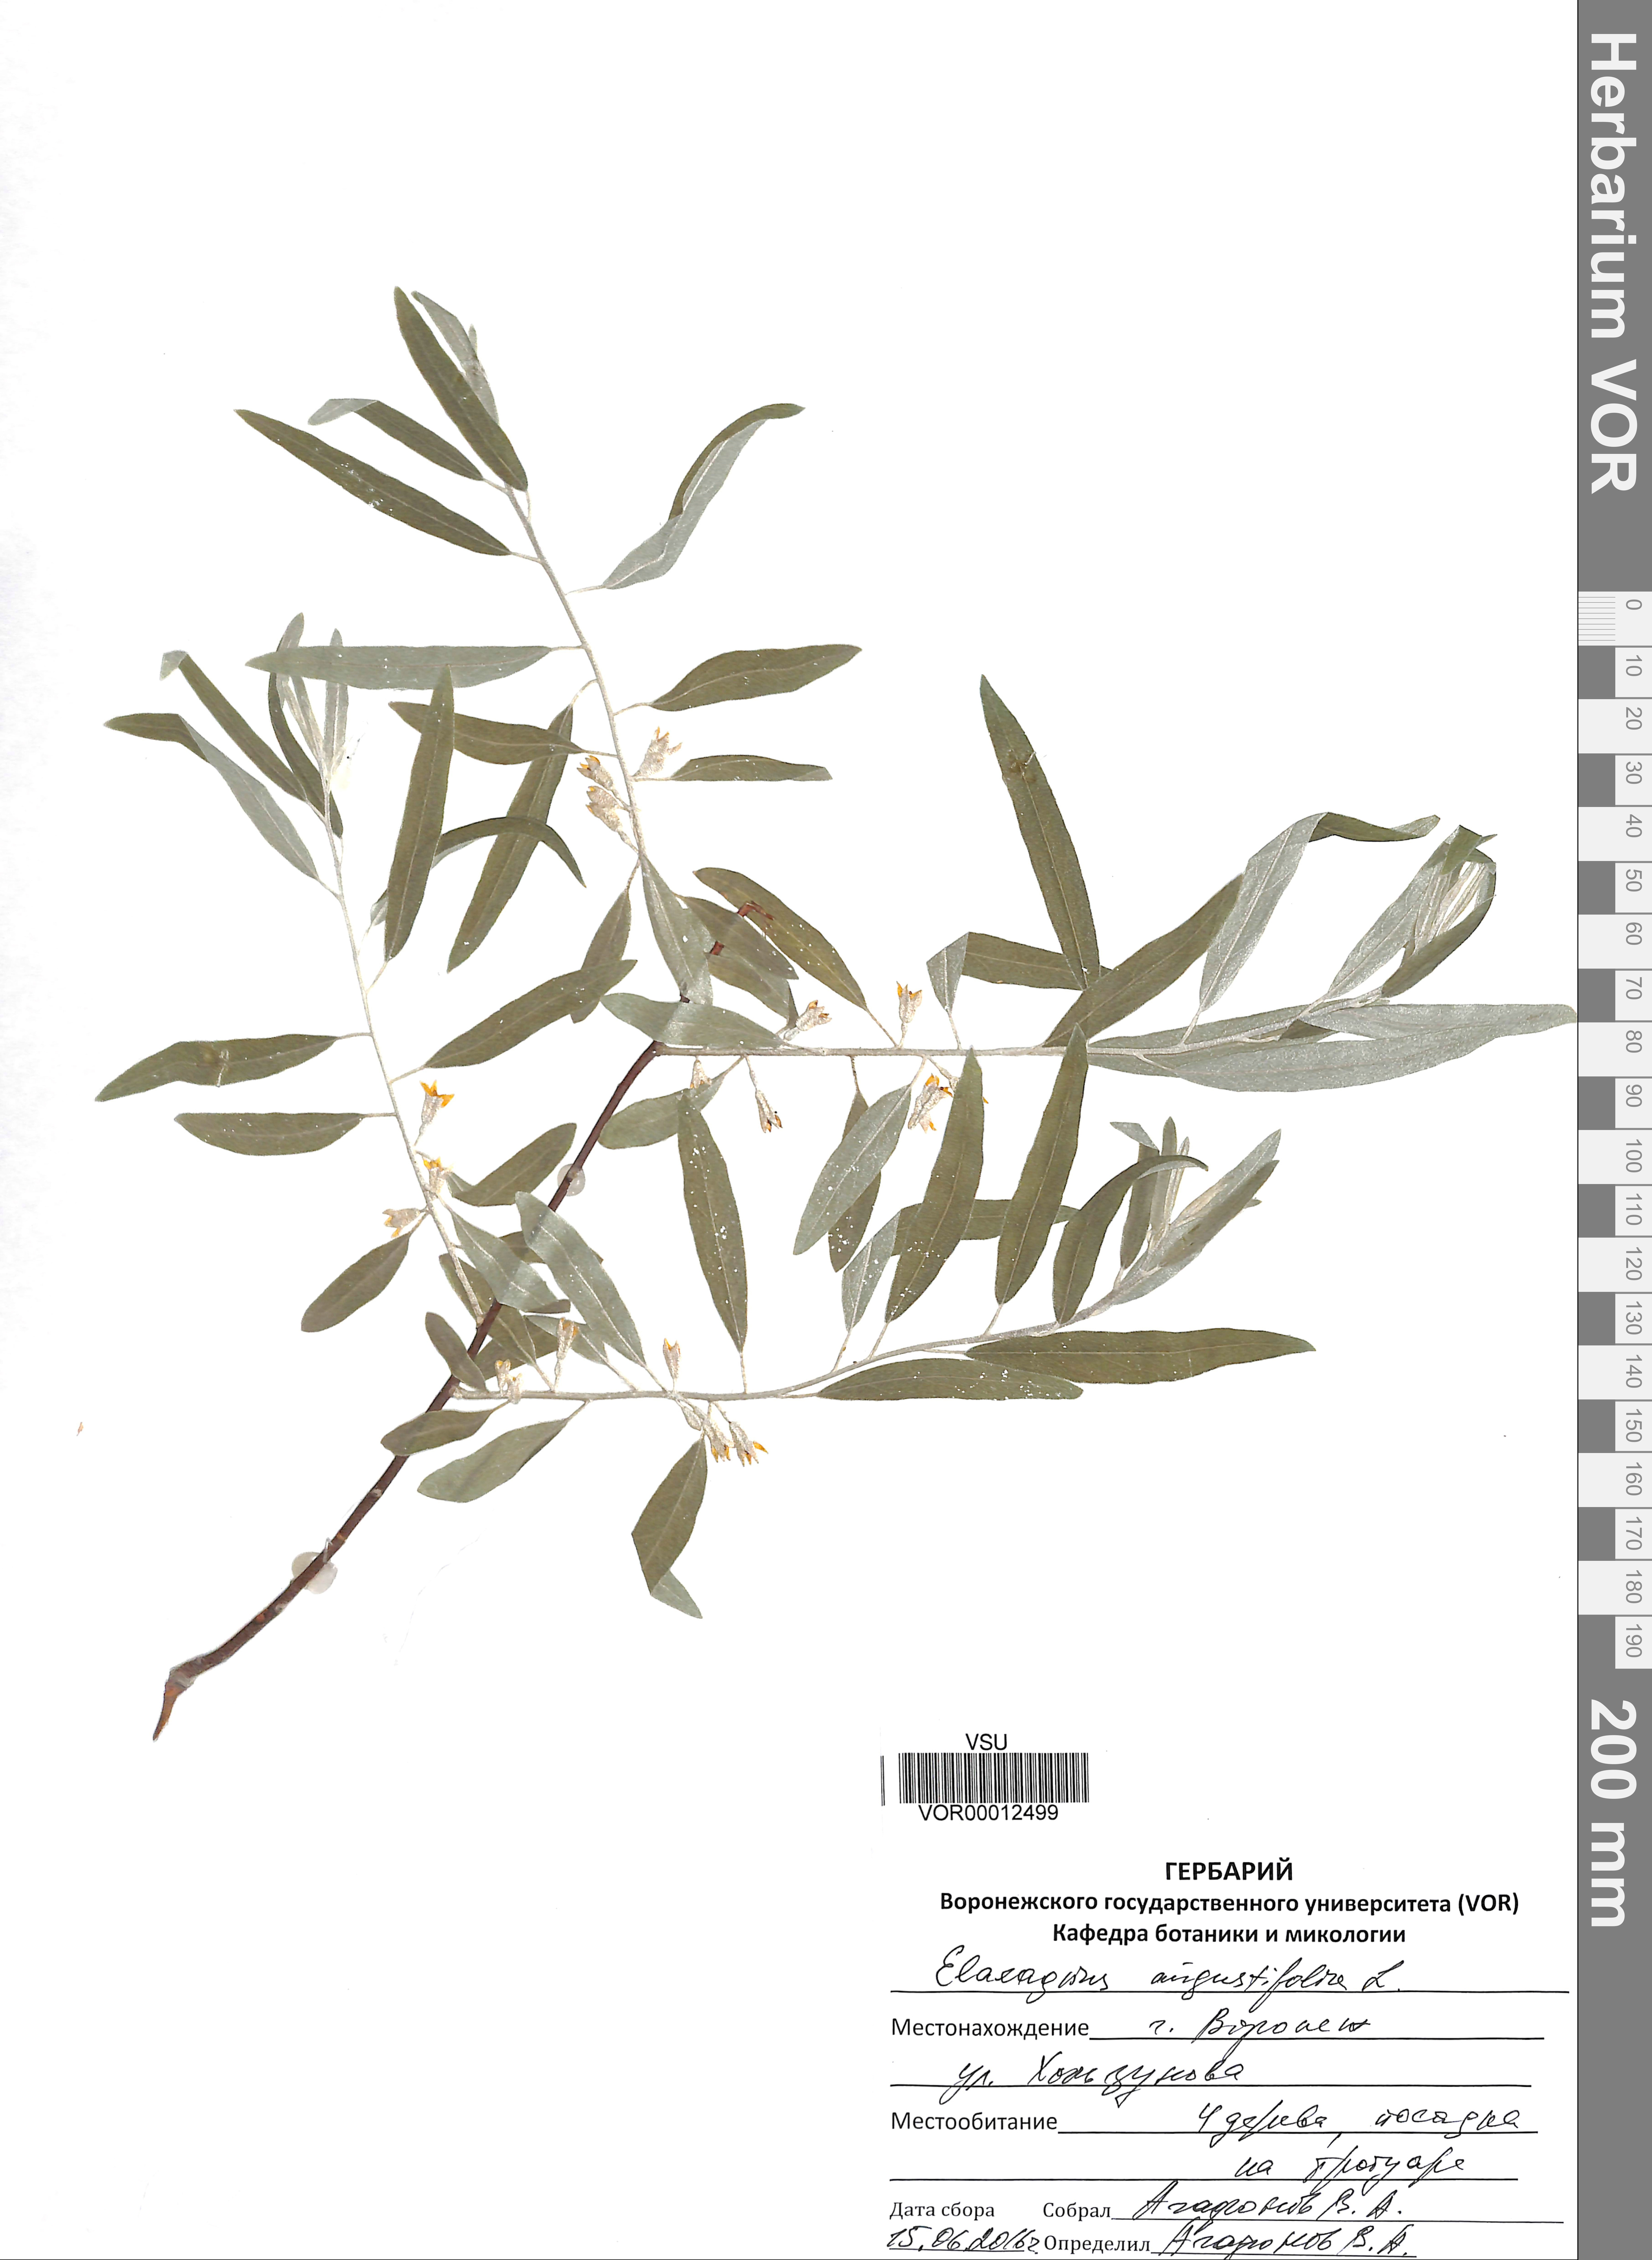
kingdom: Plantae
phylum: Tracheophyta
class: Magnoliopsida
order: Rosales
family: Elaeagnaceae
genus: Elaeagnus
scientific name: Elaeagnus angustifolia
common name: Russian olive
